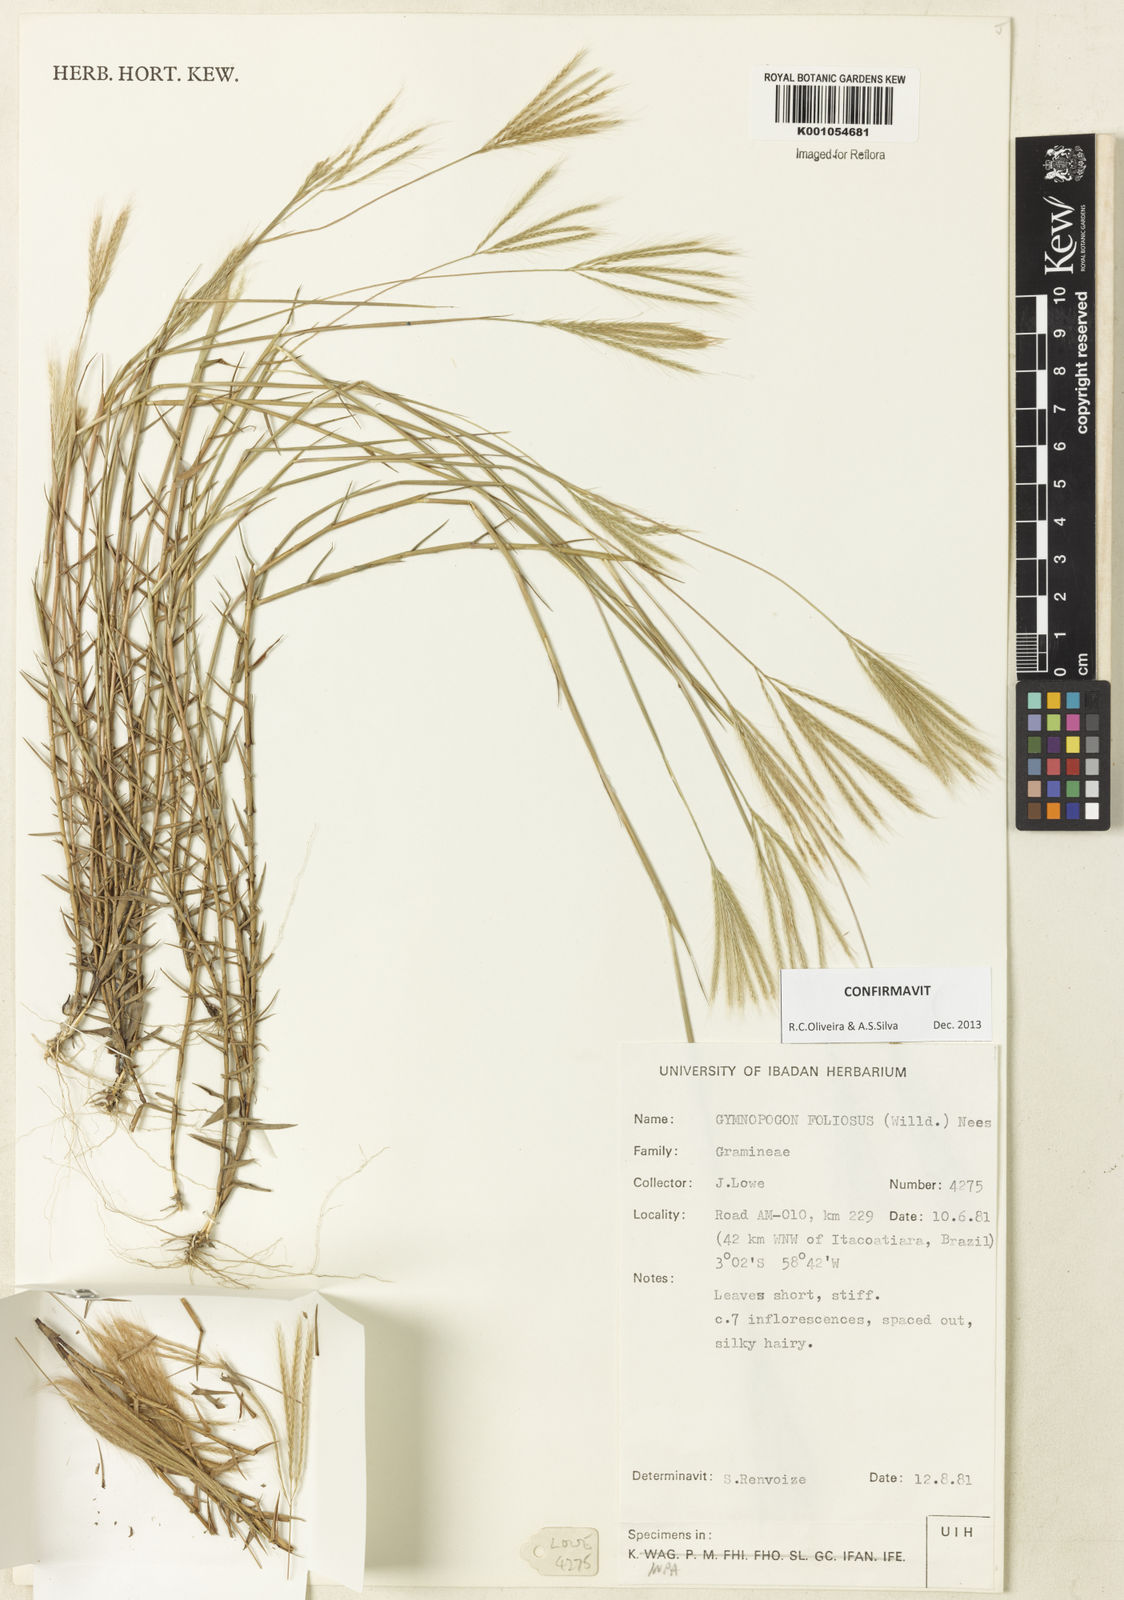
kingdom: Plantae
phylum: Tracheophyta
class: Liliopsida
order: Poales
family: Poaceae
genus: Gymnopogon
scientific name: Gymnopogon foliosus
